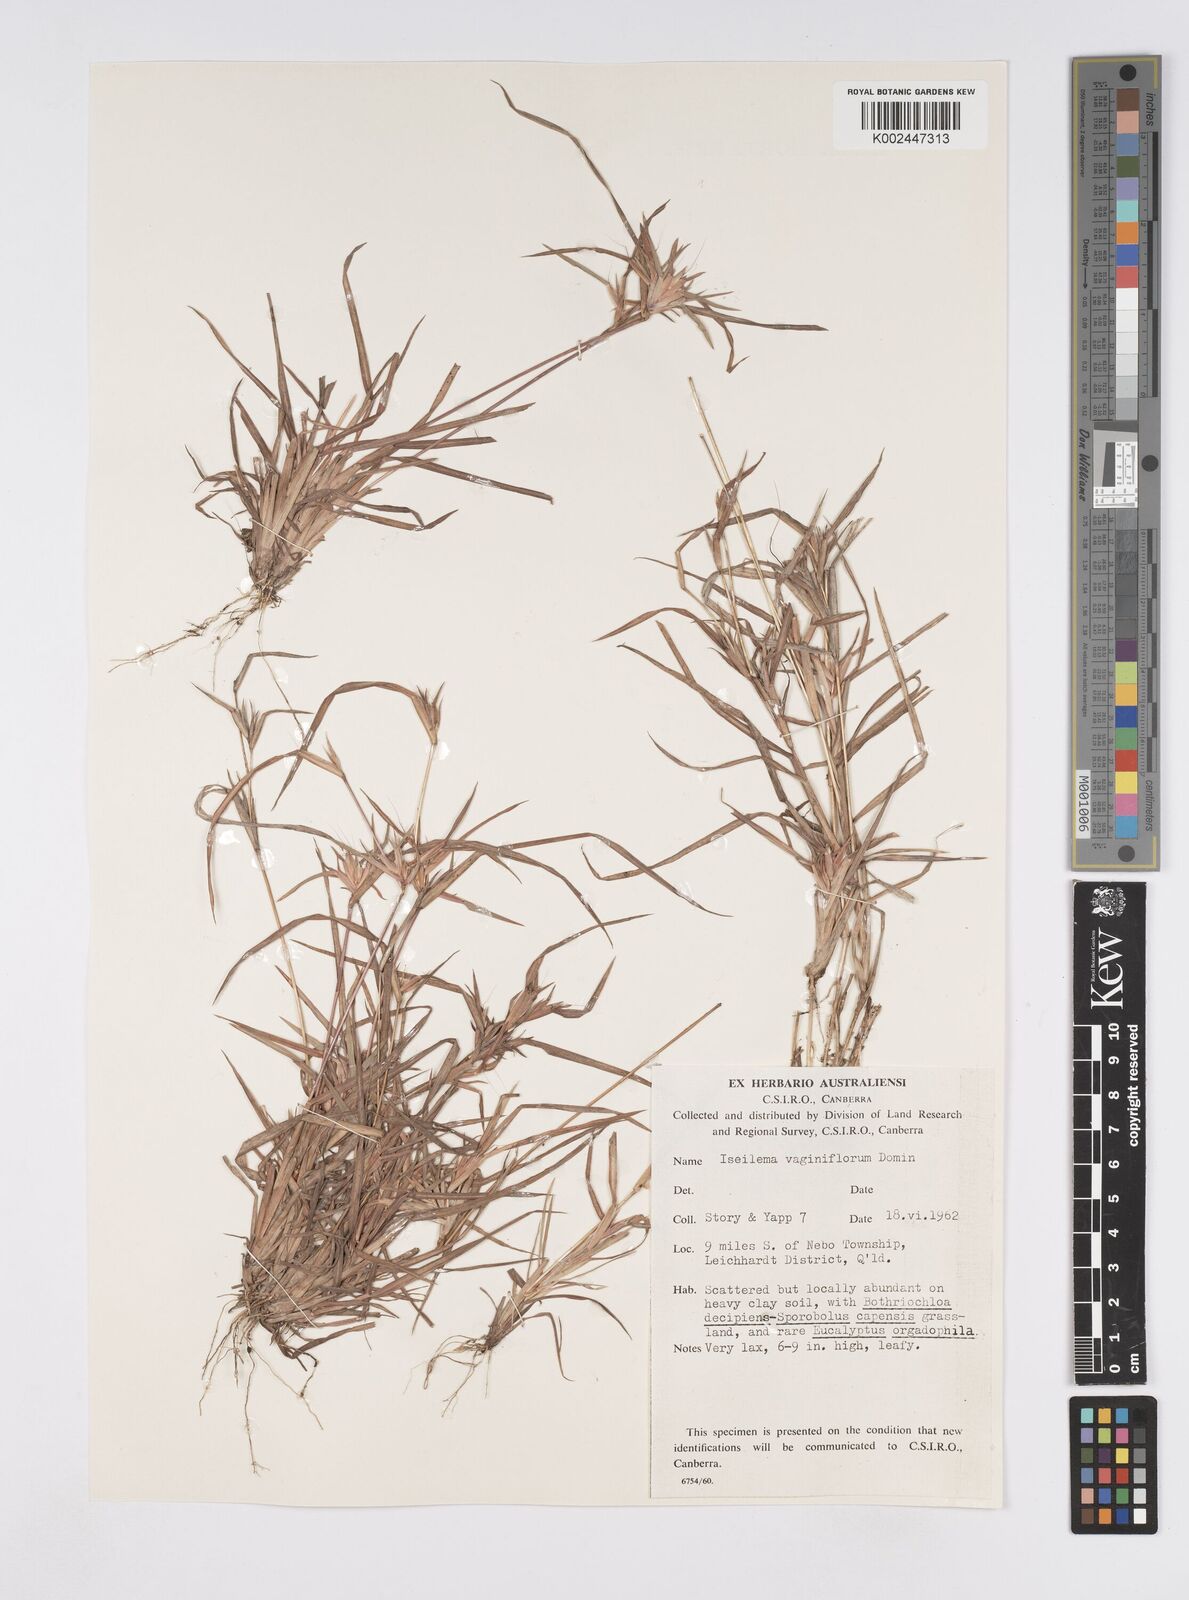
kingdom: Plantae
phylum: Tracheophyta
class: Liliopsida
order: Poales
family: Poaceae
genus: Iseilema
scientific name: Iseilema vaginiflorum
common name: Red flinders grass
